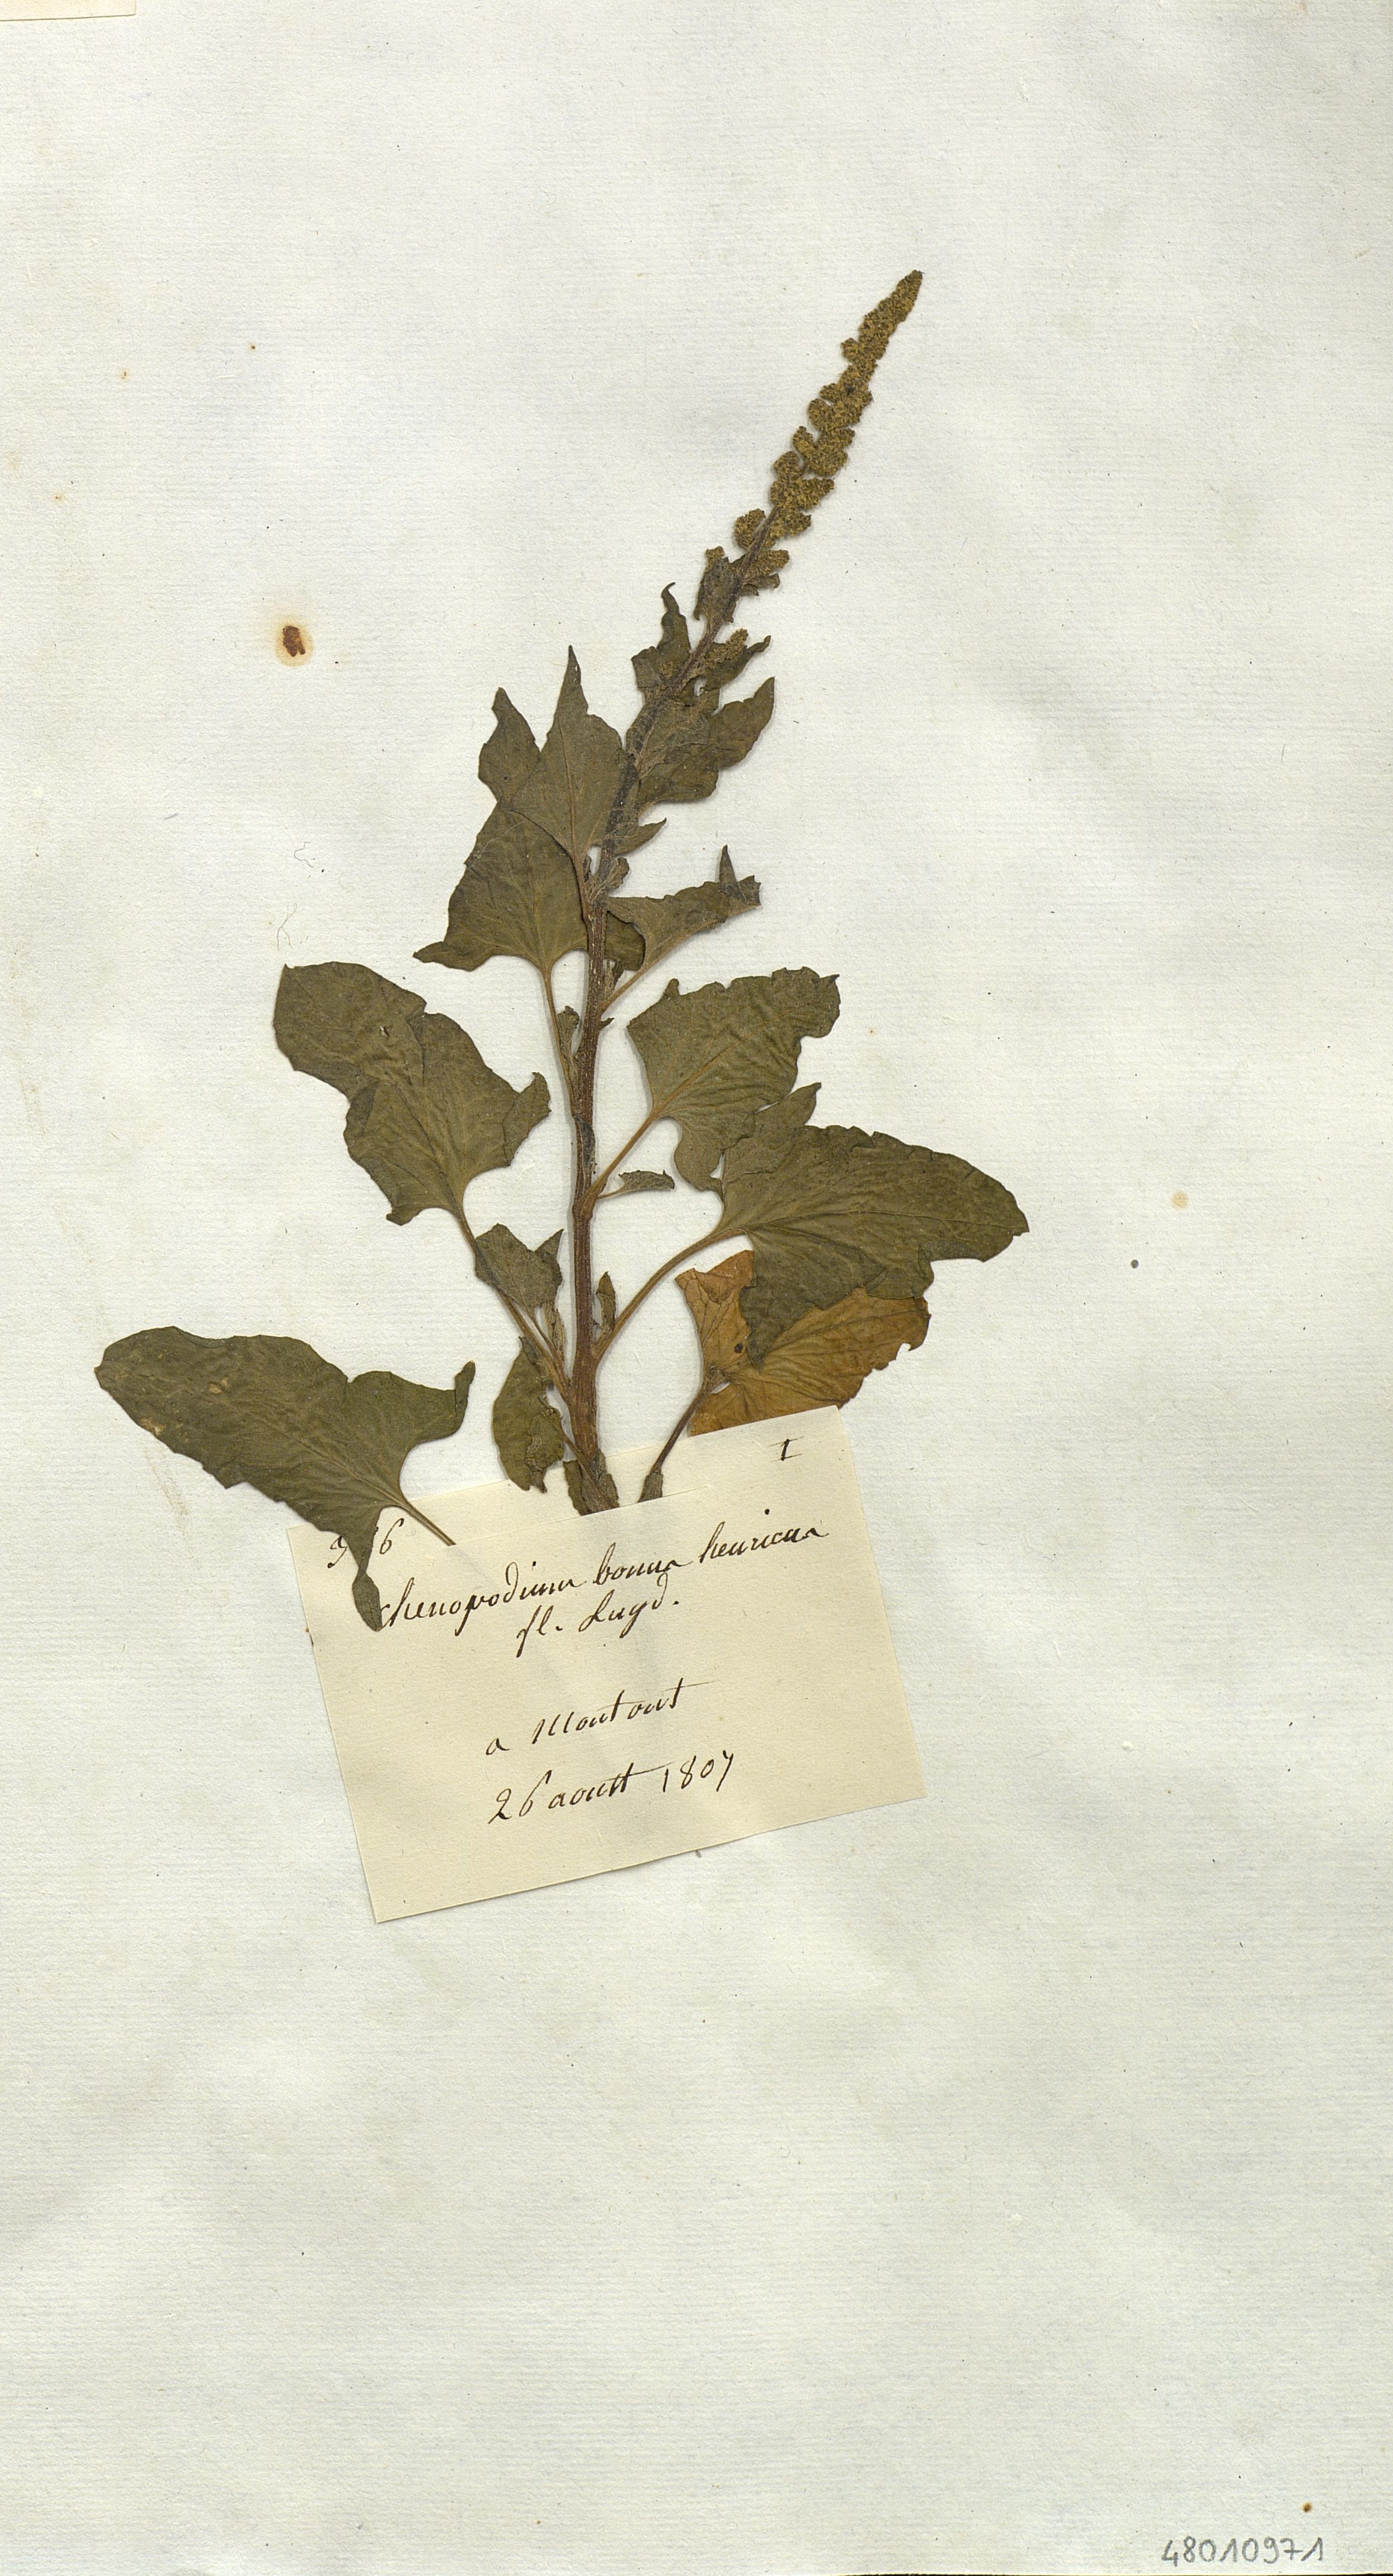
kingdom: Plantae
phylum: Tracheophyta
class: Magnoliopsida
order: Caryophyllales
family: Amaranthaceae
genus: Blitum
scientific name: Blitum bonus-henricus
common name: Good king henry
